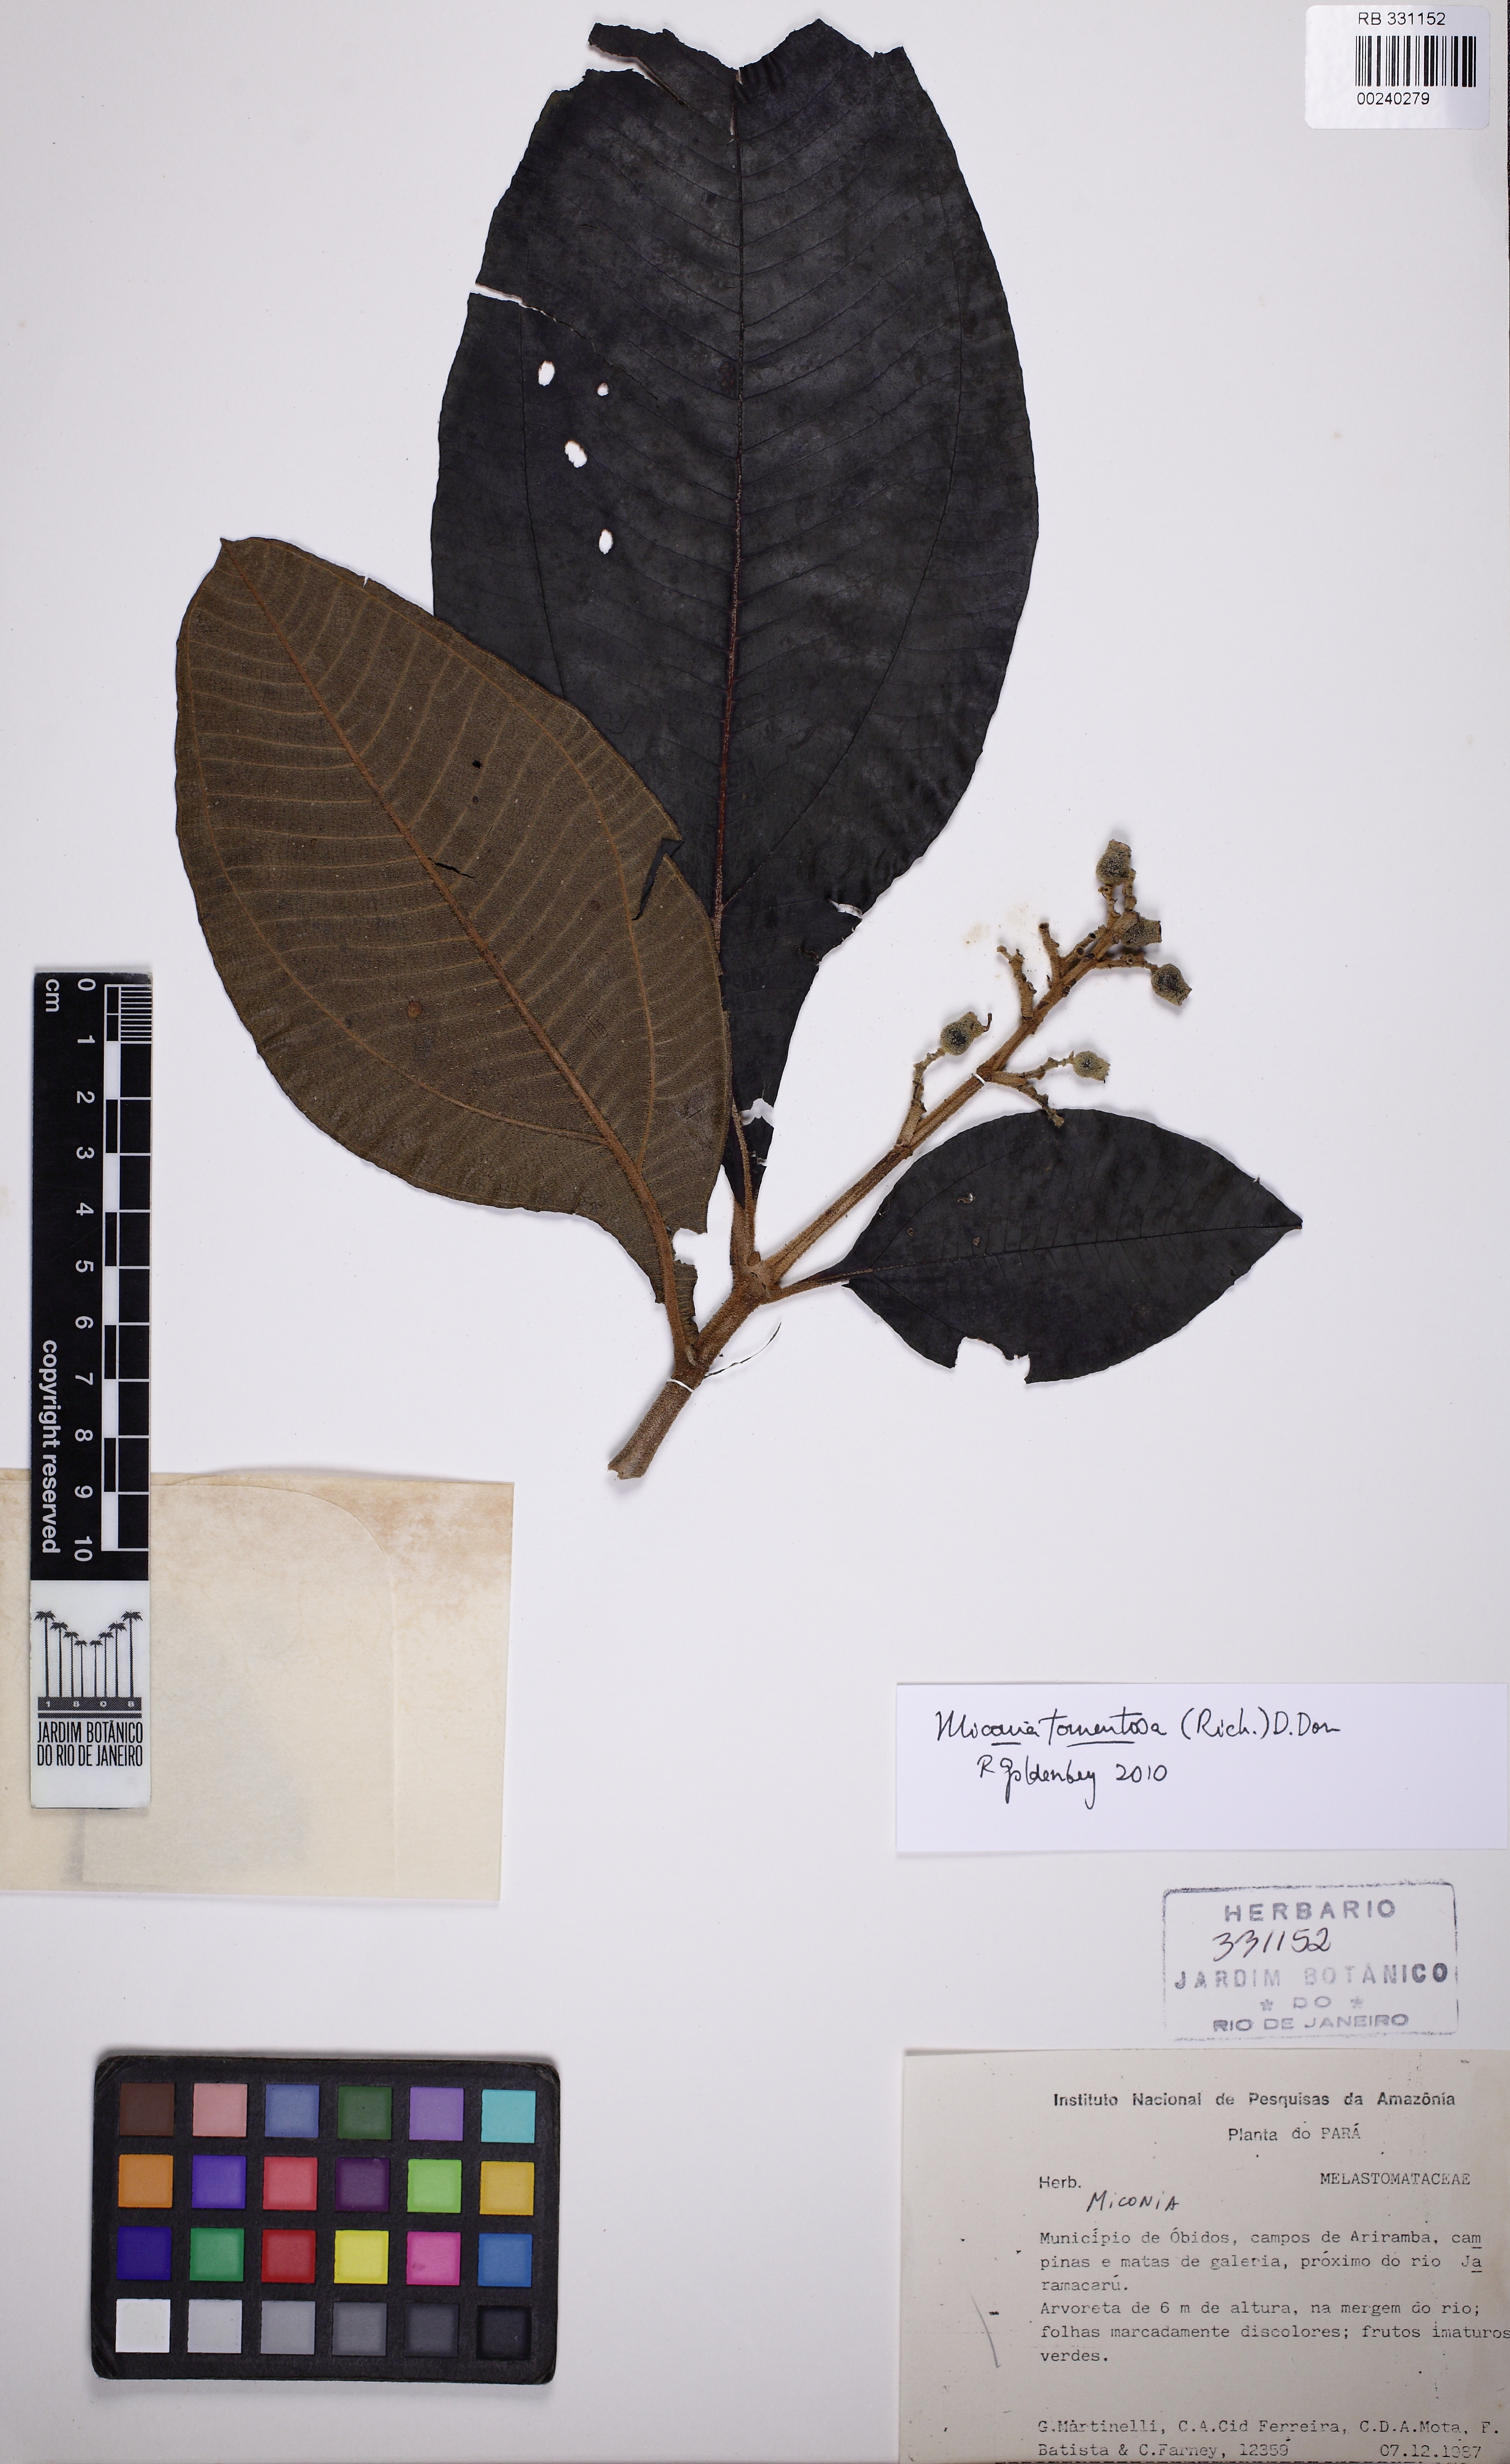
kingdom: Plantae
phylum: Tracheophyta
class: Magnoliopsida
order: Myrtales
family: Melastomataceae
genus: Miconia
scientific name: Miconia tomentosa
